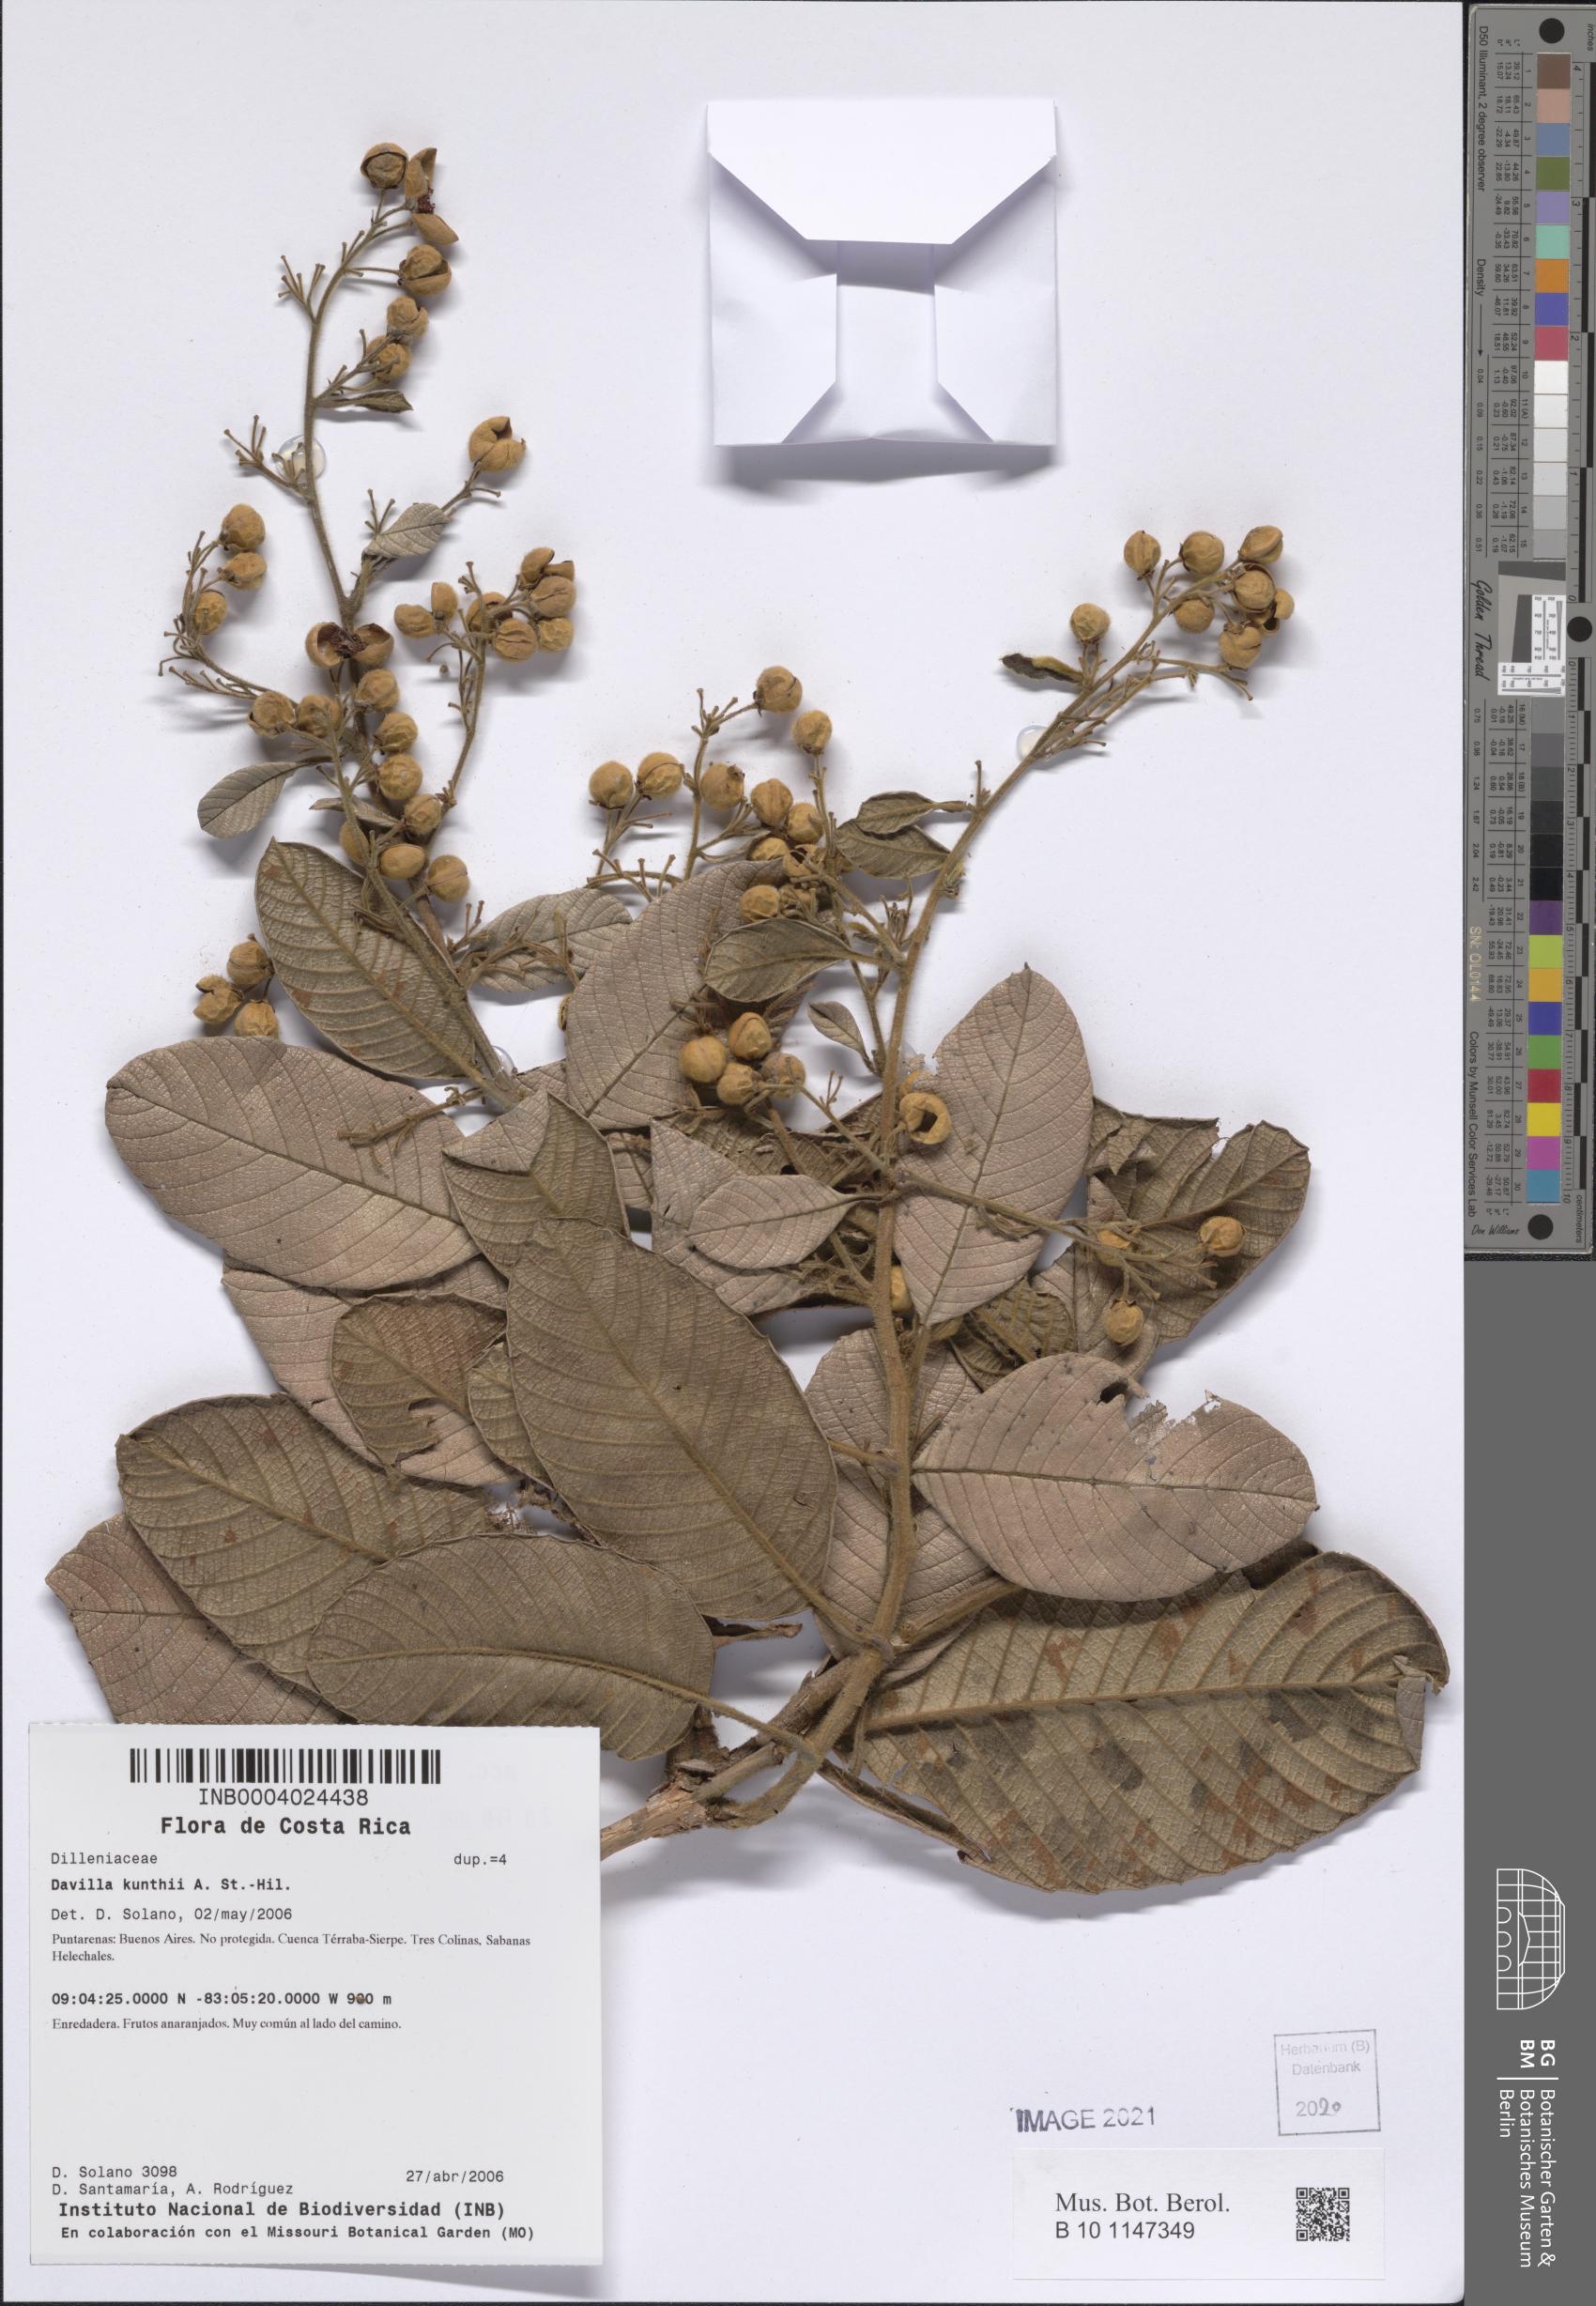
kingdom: Plantae
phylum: Tracheophyta
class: Magnoliopsida
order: Dilleniales
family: Dilleniaceae
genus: Davilla
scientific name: Davilla kunthii
